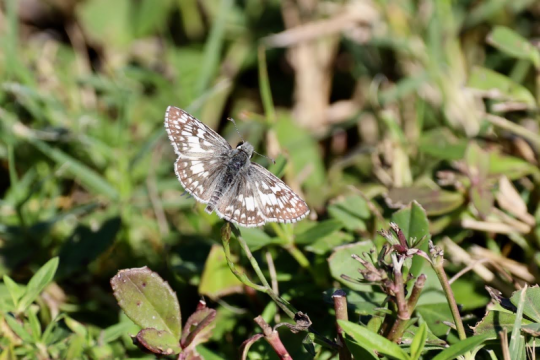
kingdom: Animalia
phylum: Arthropoda
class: Insecta
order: Lepidoptera
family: Hesperiidae
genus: Pyrgus
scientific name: Pyrgus communis
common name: Common Checkered-Skipper
